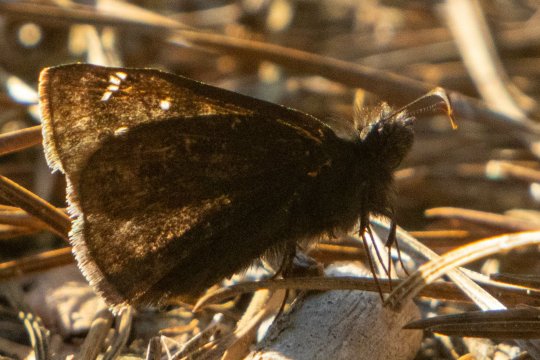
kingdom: Animalia
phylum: Arthropoda
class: Insecta
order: Lepidoptera
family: Hesperiidae
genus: Gesta
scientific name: Gesta
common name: Juvenal's Duskywing
